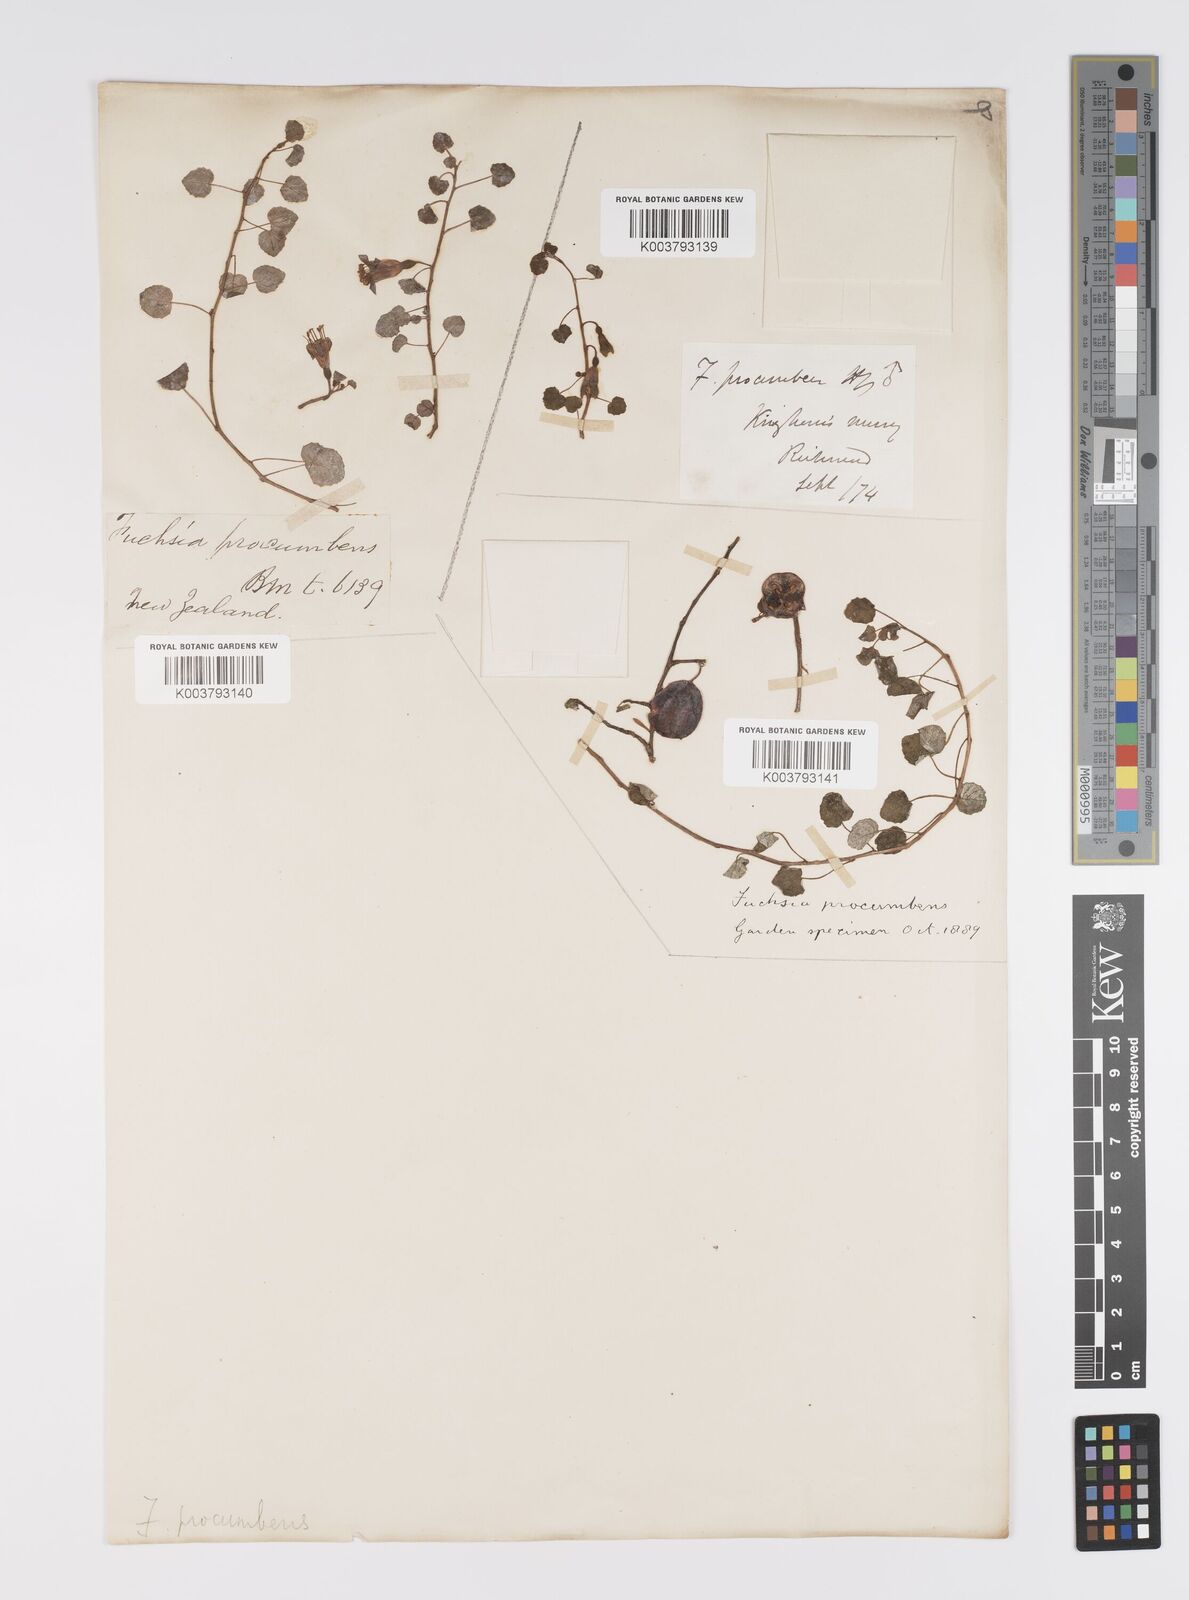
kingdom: Plantae
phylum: Tracheophyta
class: Magnoliopsida
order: Myrtales
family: Onagraceae
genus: Fuchsia
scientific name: Fuchsia procumbens
